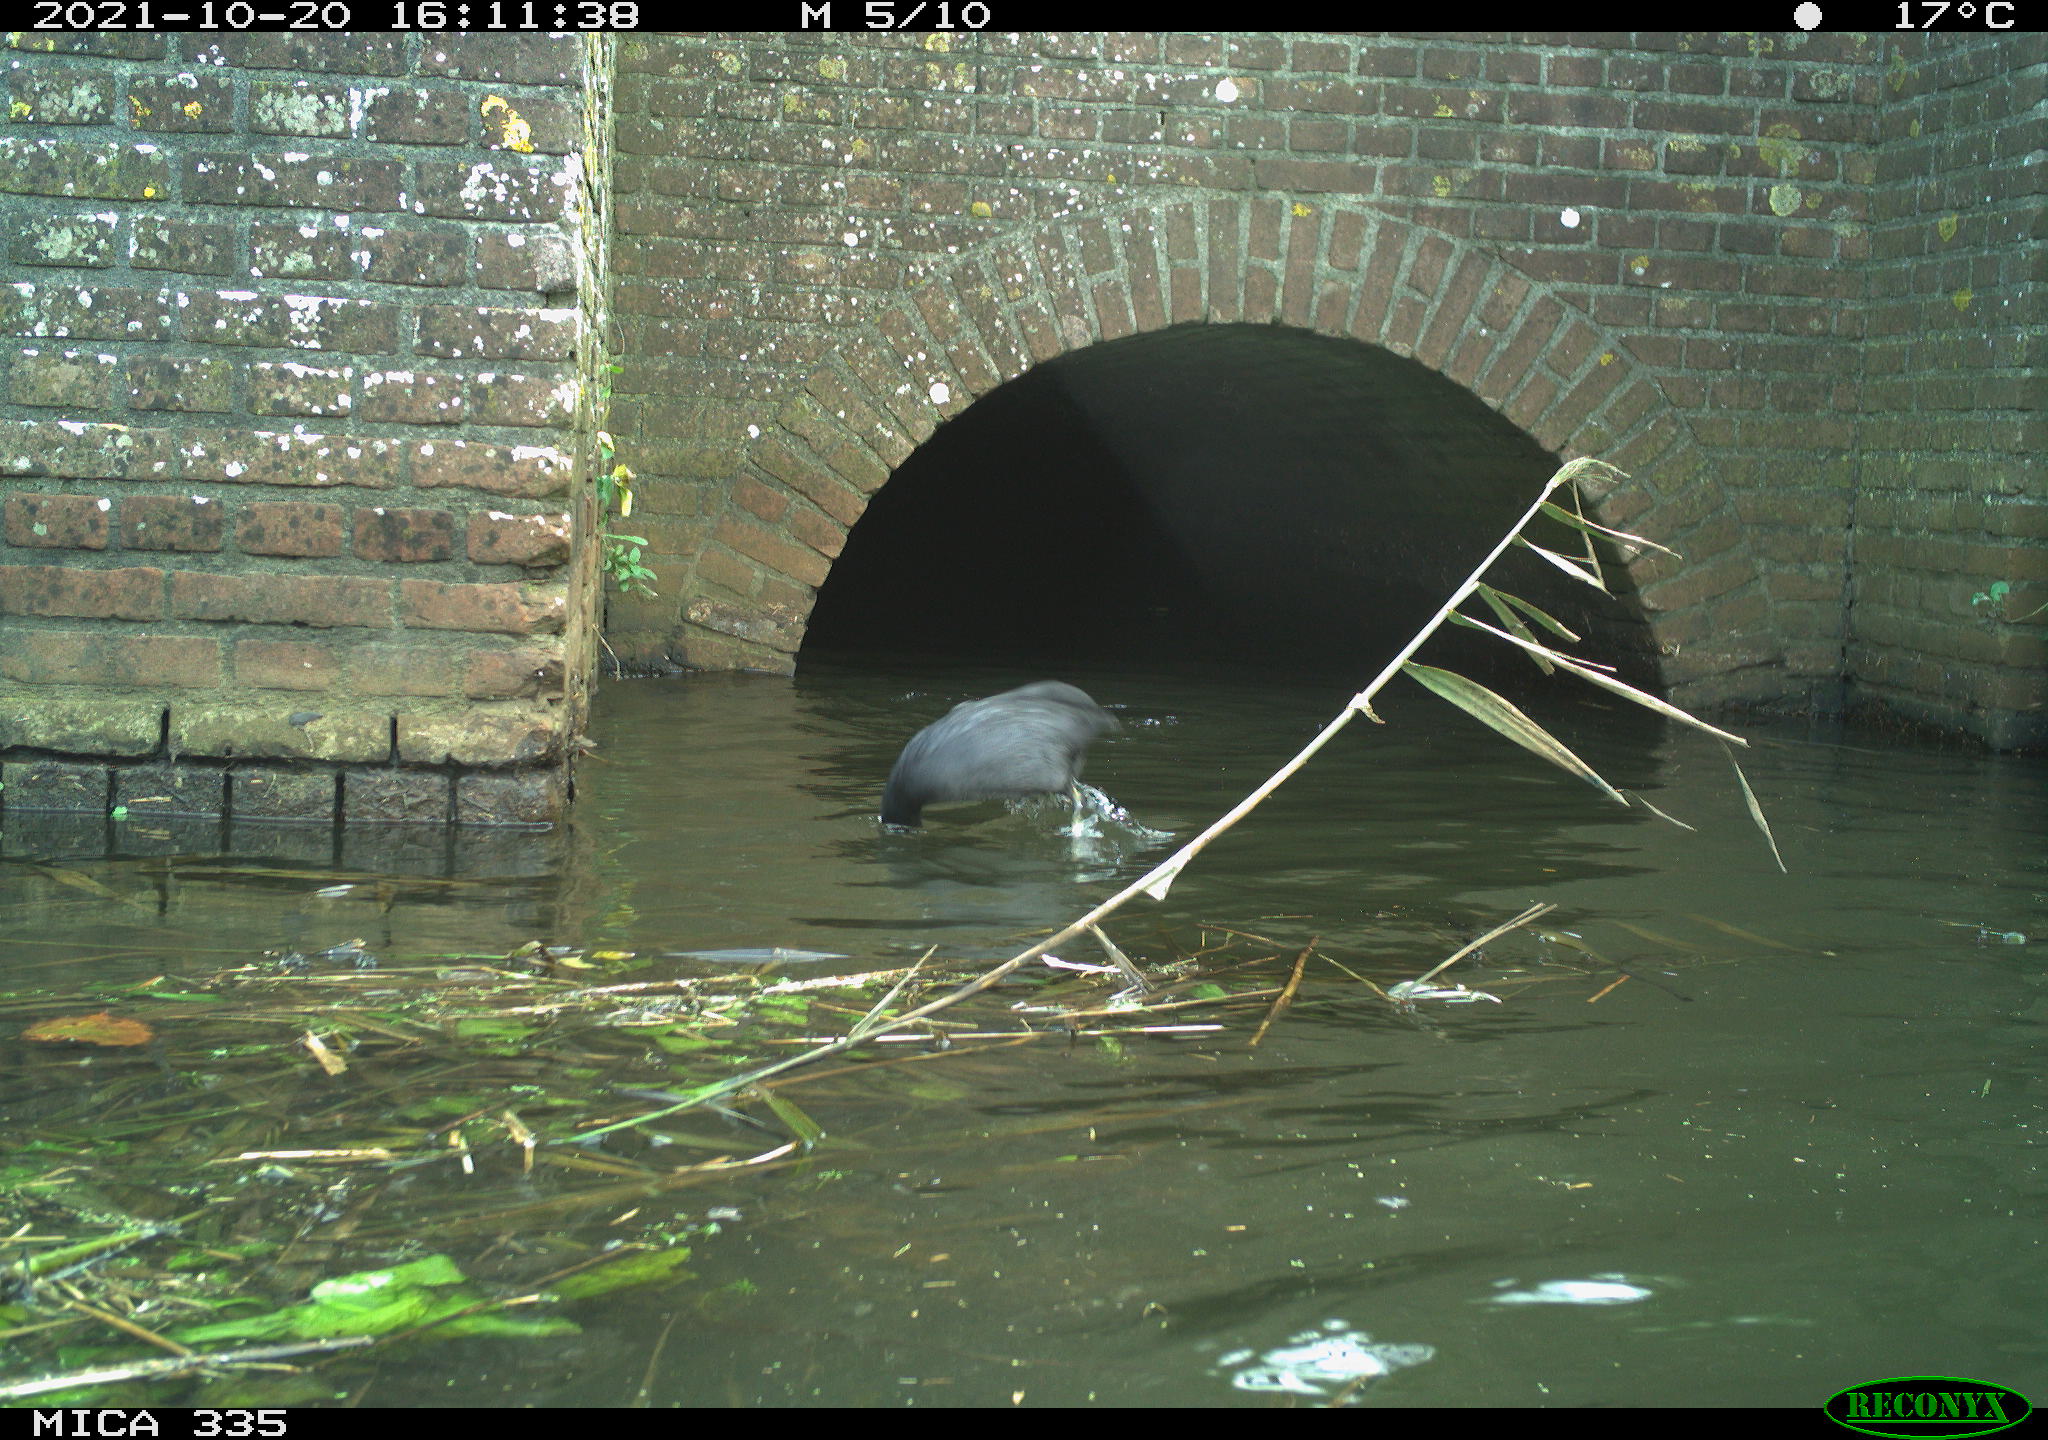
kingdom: Animalia
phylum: Chordata
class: Aves
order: Gruiformes
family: Rallidae
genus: Fulica
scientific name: Fulica atra
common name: Eurasian coot
